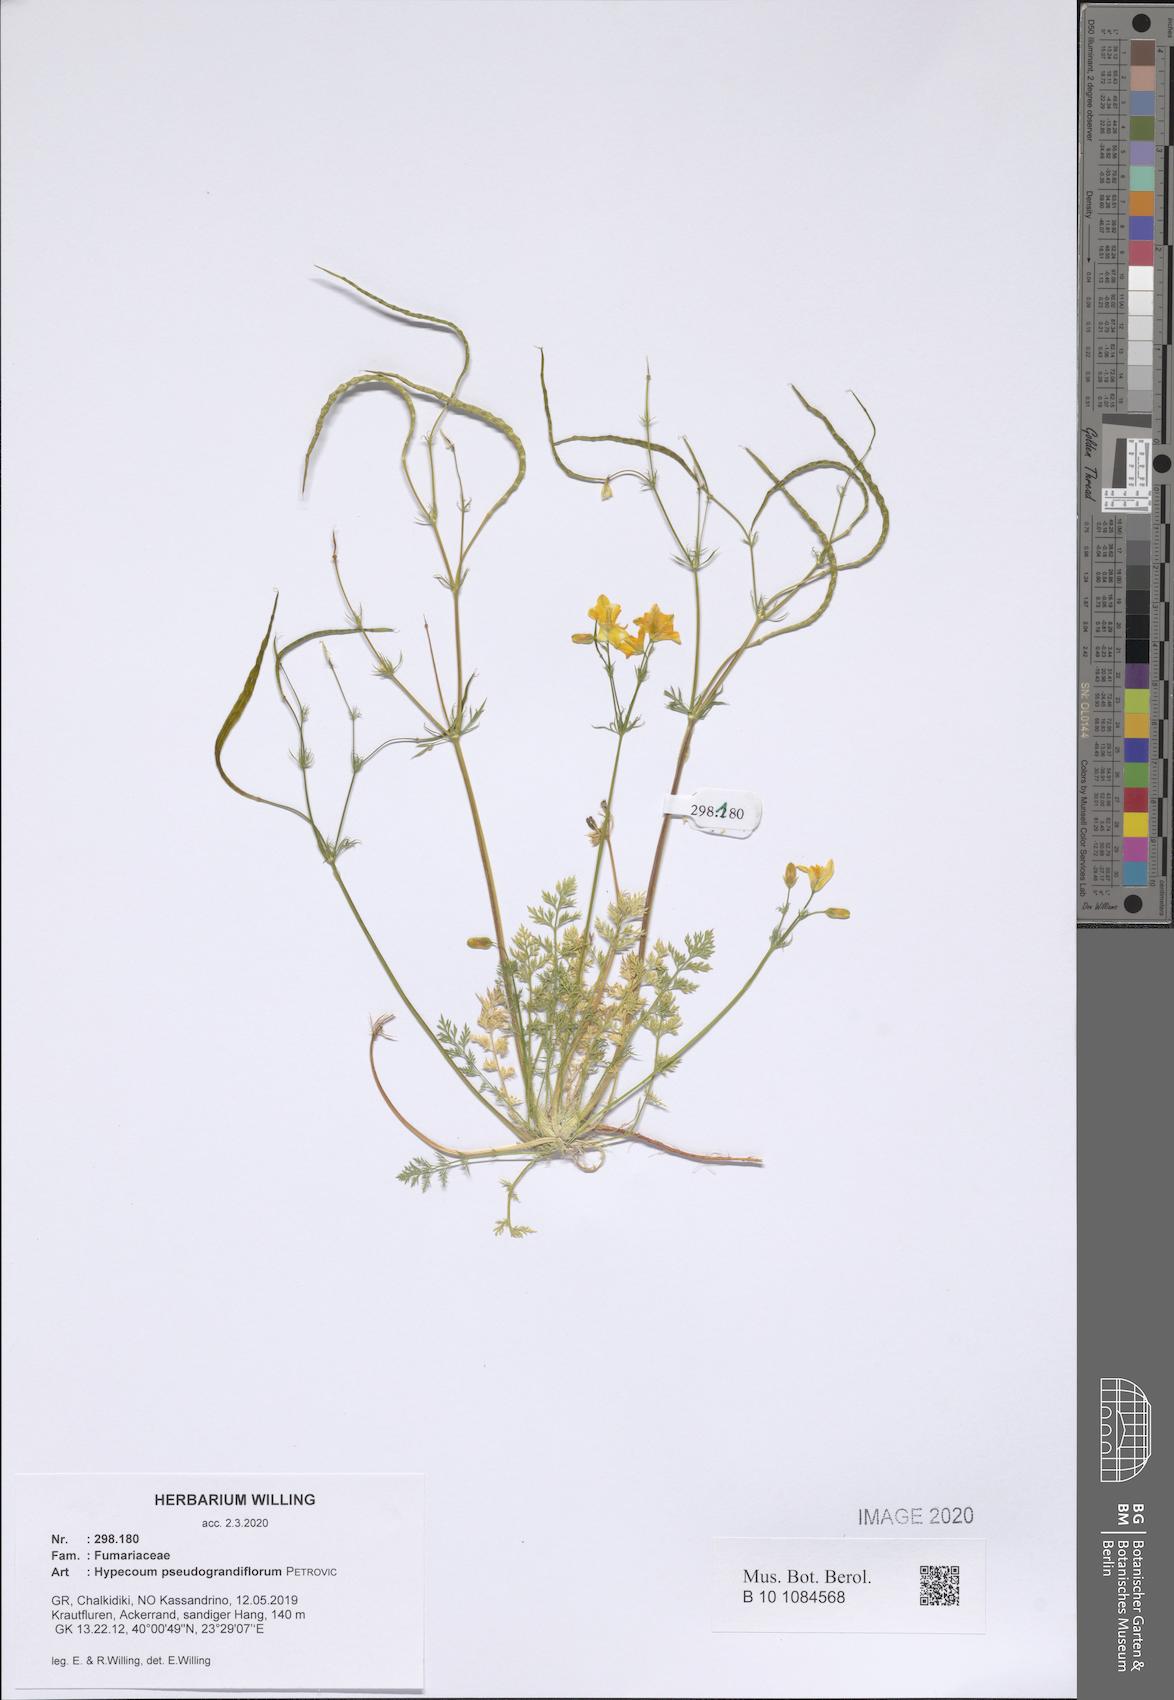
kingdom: Plantae
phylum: Tracheophyta
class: Magnoliopsida
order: Ranunculales
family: Papaveraceae
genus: Hypecoum
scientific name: Hypecoum pseudograndiflorum
